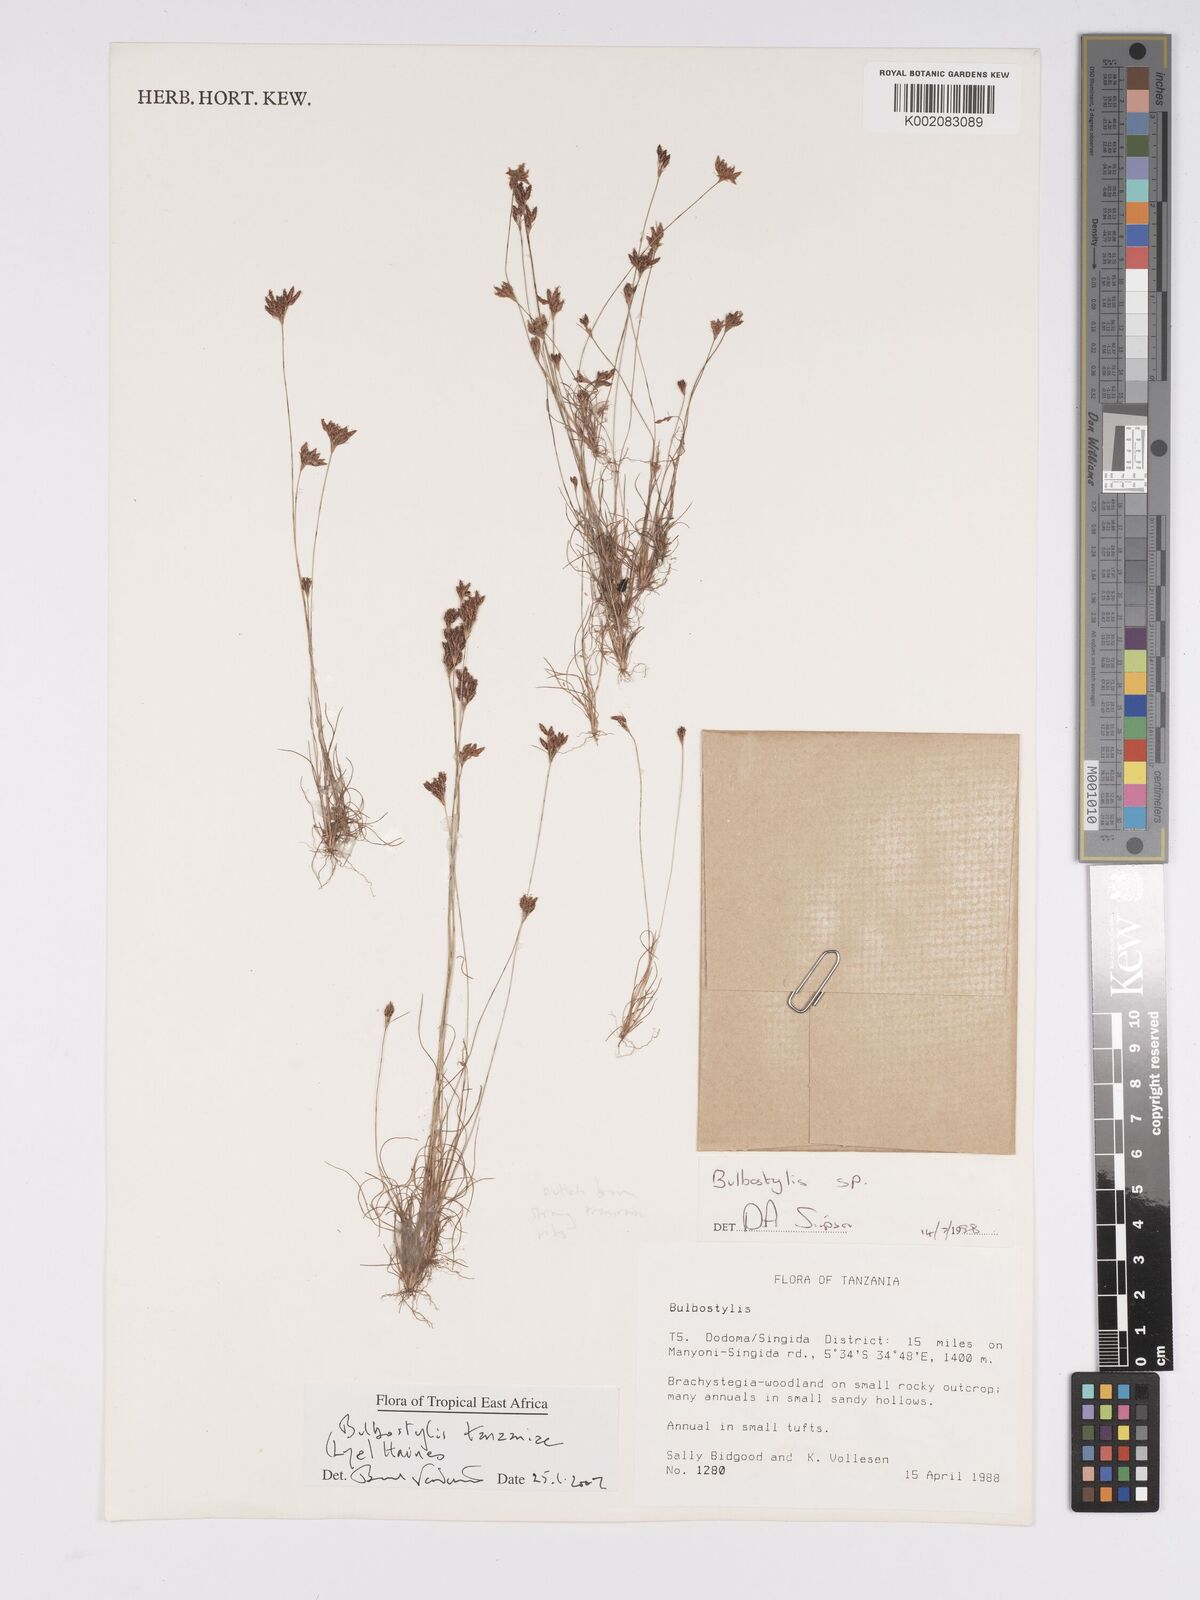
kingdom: Plantae
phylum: Tracheophyta
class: Liliopsida
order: Poales
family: Cyperaceae
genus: Bulbostylis
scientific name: Bulbostylis tanzaniae
